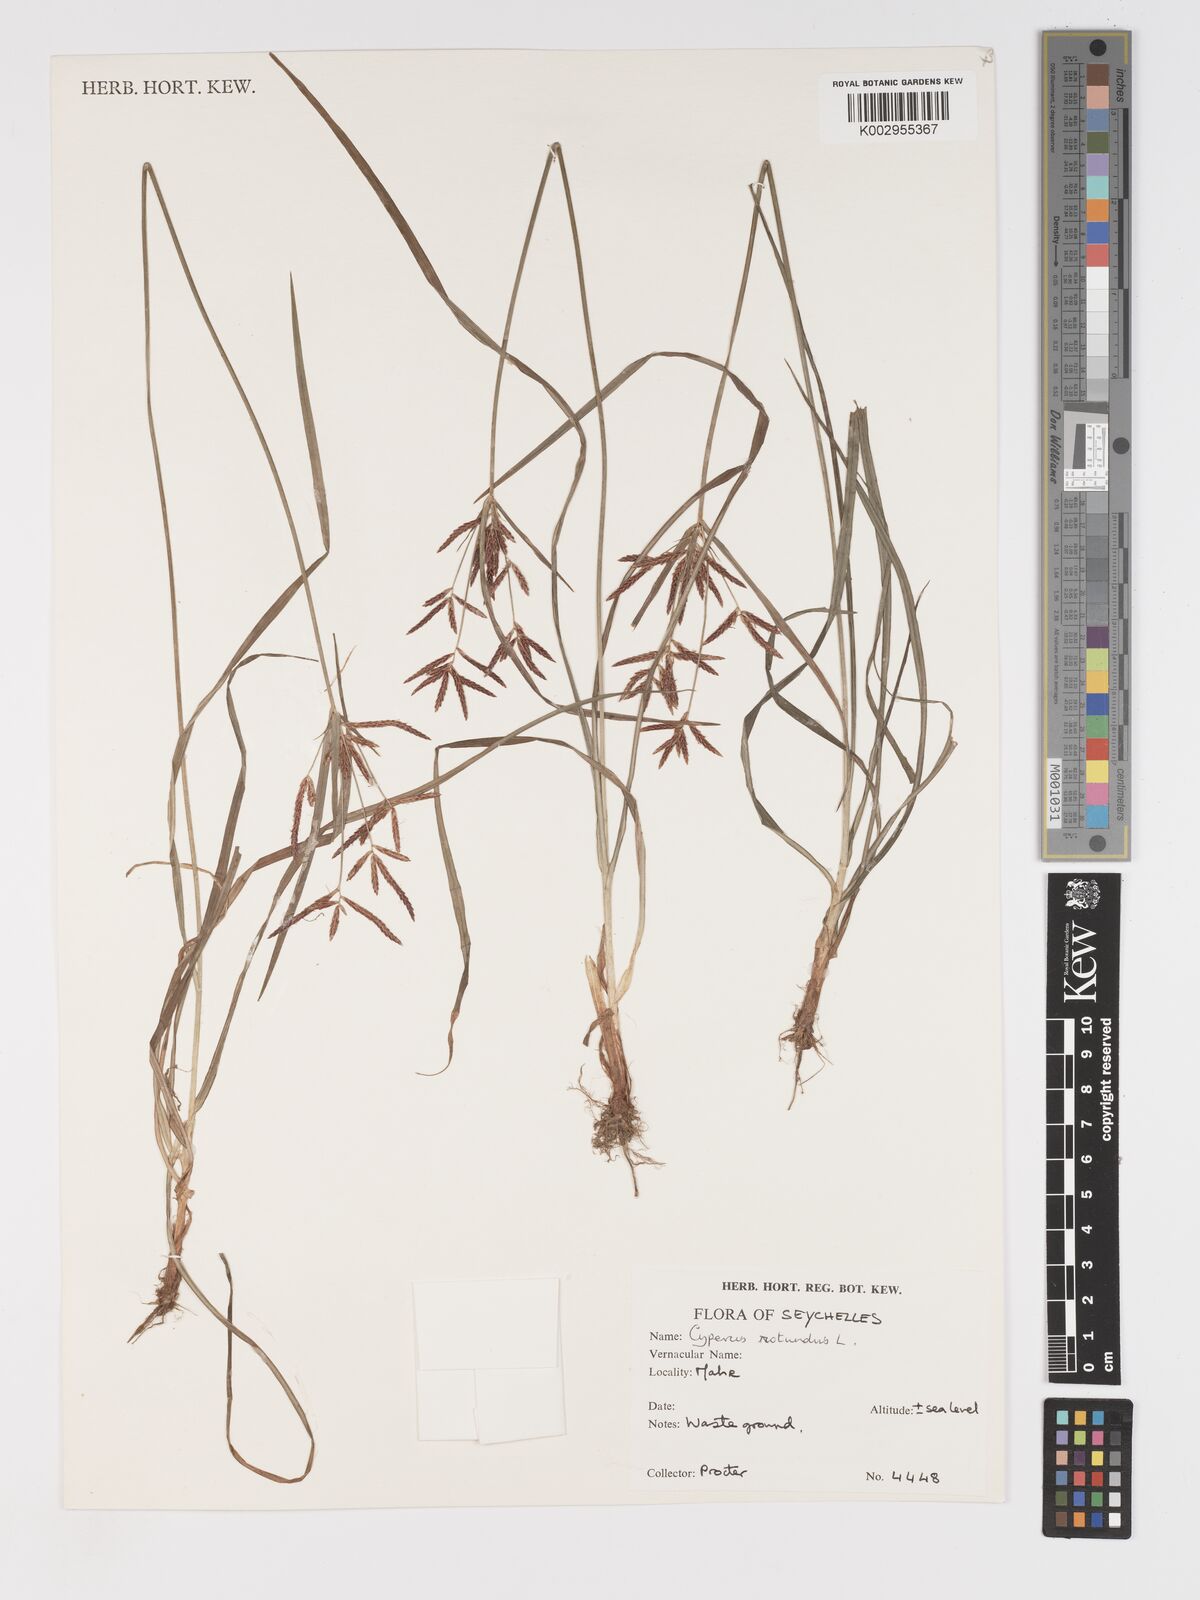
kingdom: Plantae
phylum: Tracheophyta
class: Liliopsida
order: Poales
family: Cyperaceae
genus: Cyperus
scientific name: Cyperus rotundus
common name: Nutgrass
